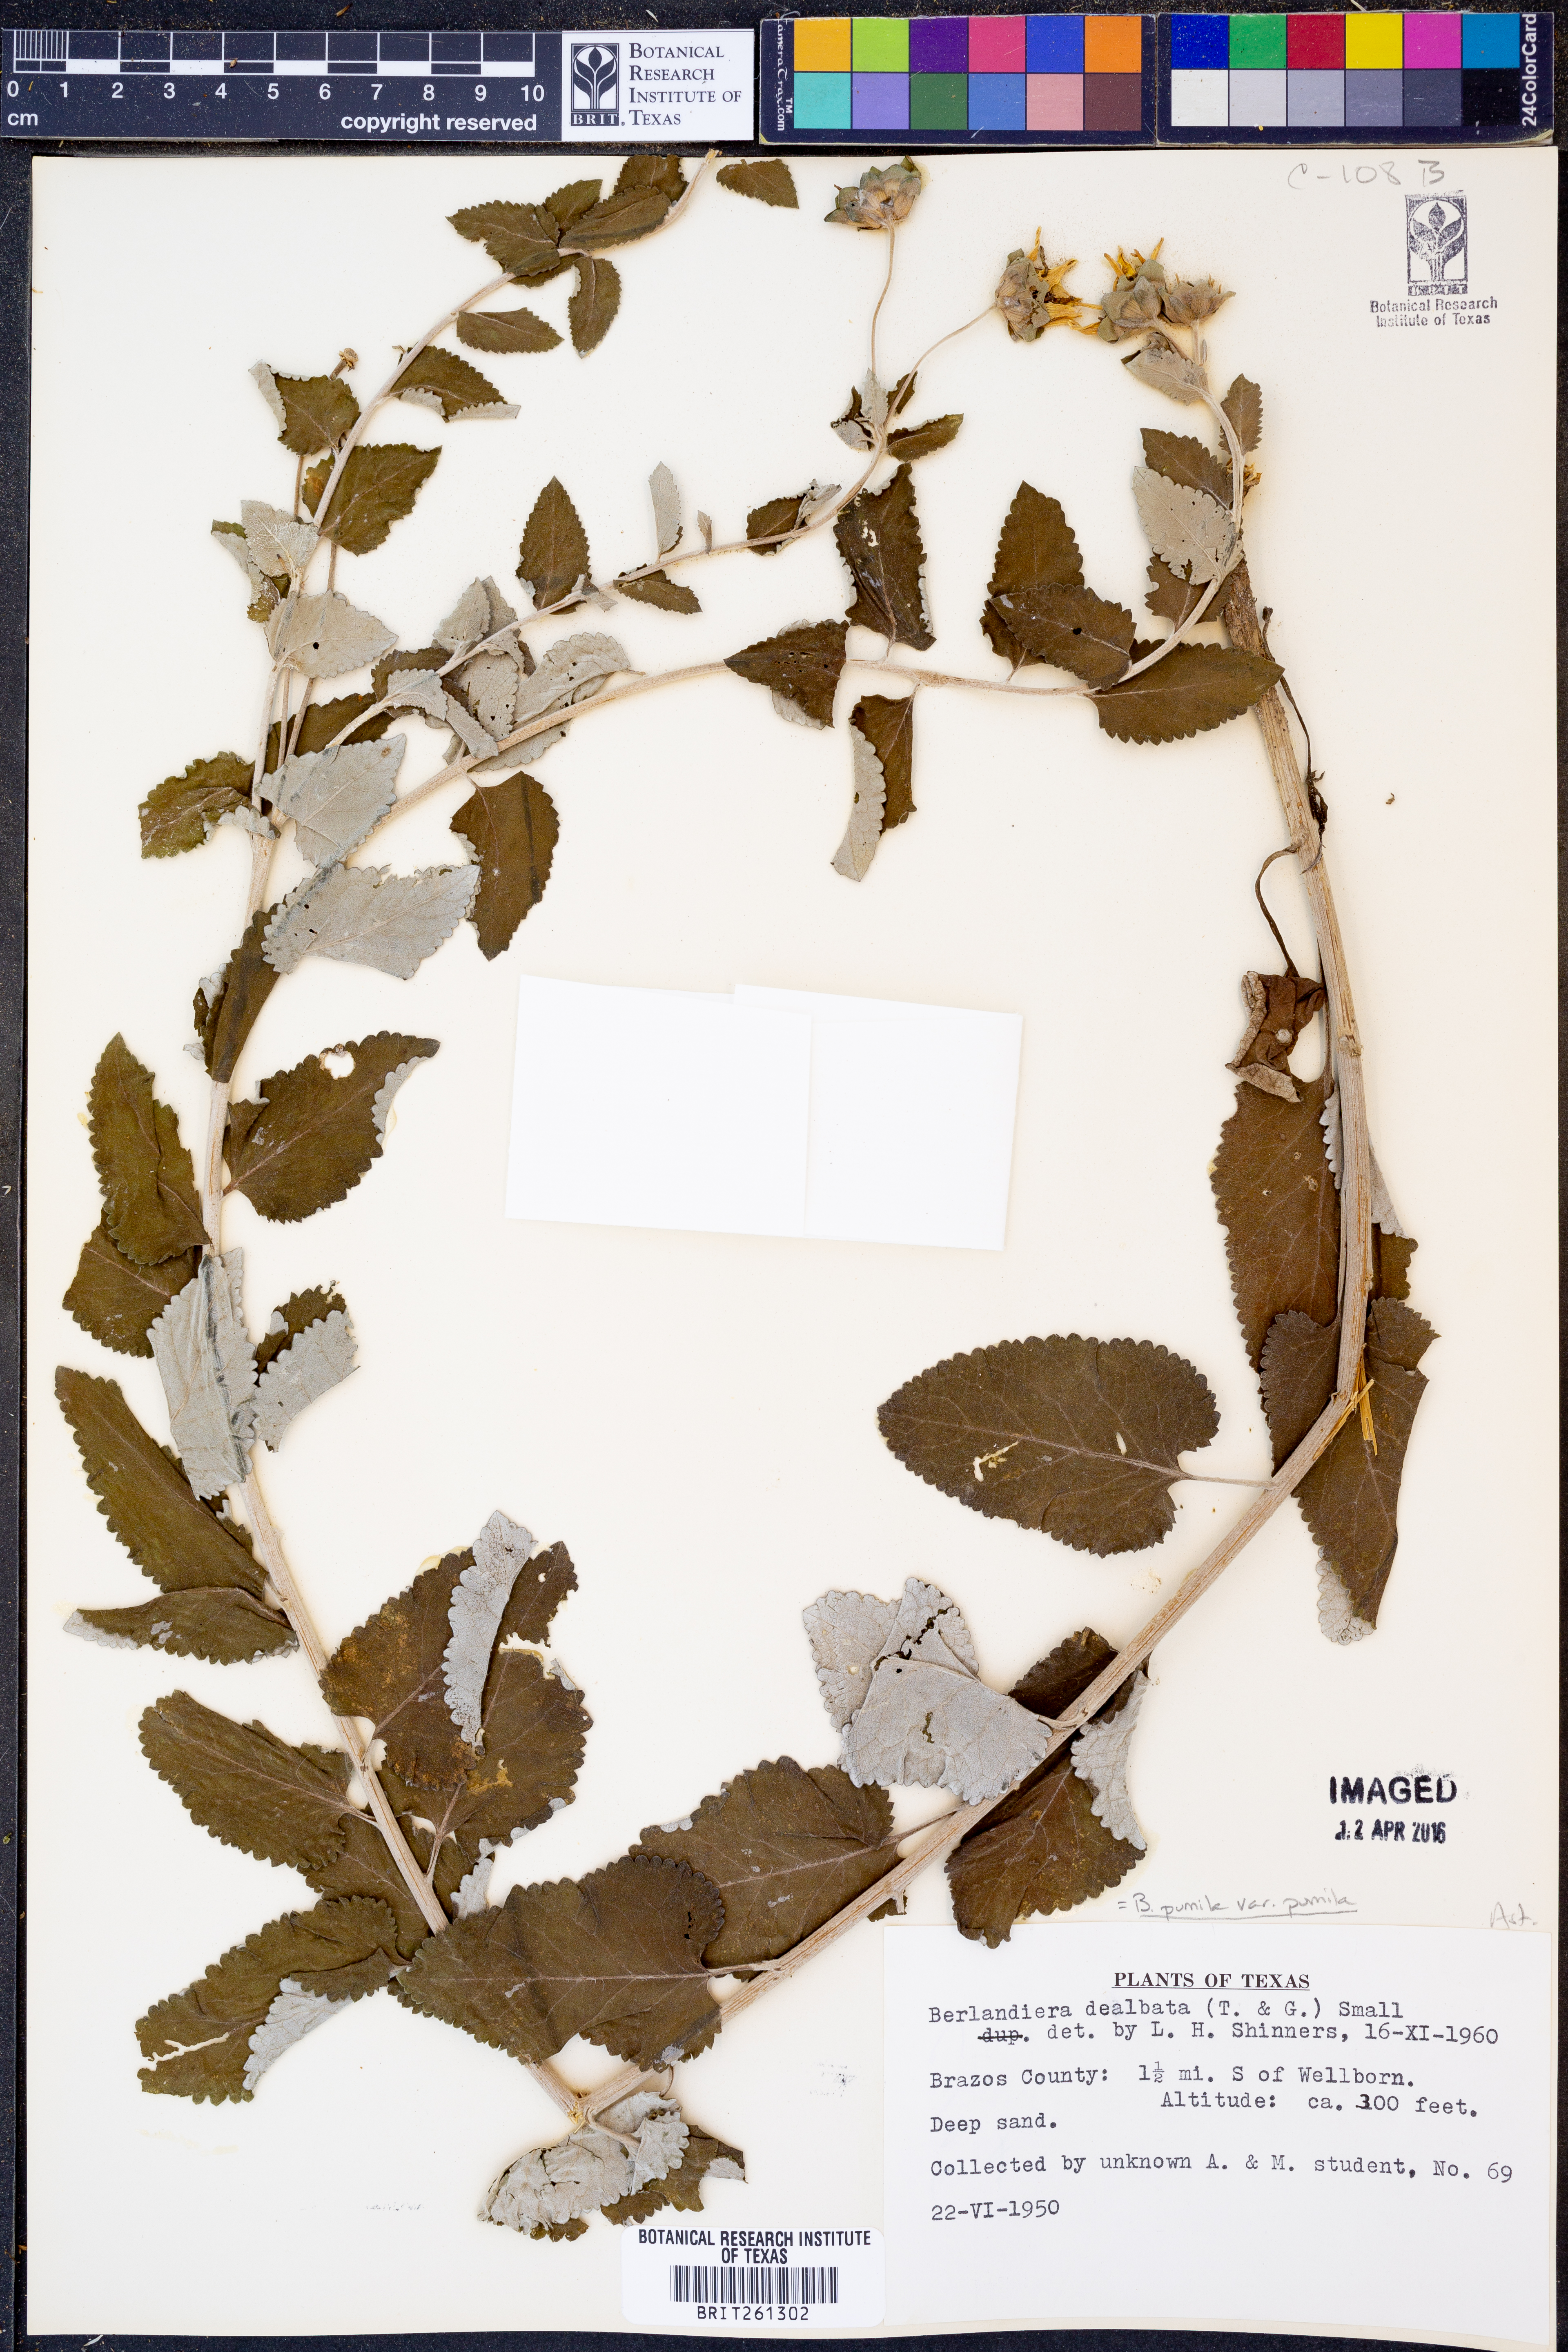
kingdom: Plantae
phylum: Tracheophyta
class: Magnoliopsida
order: Asterales
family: Asteraceae
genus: Berlandiera
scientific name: Berlandiera pumila
